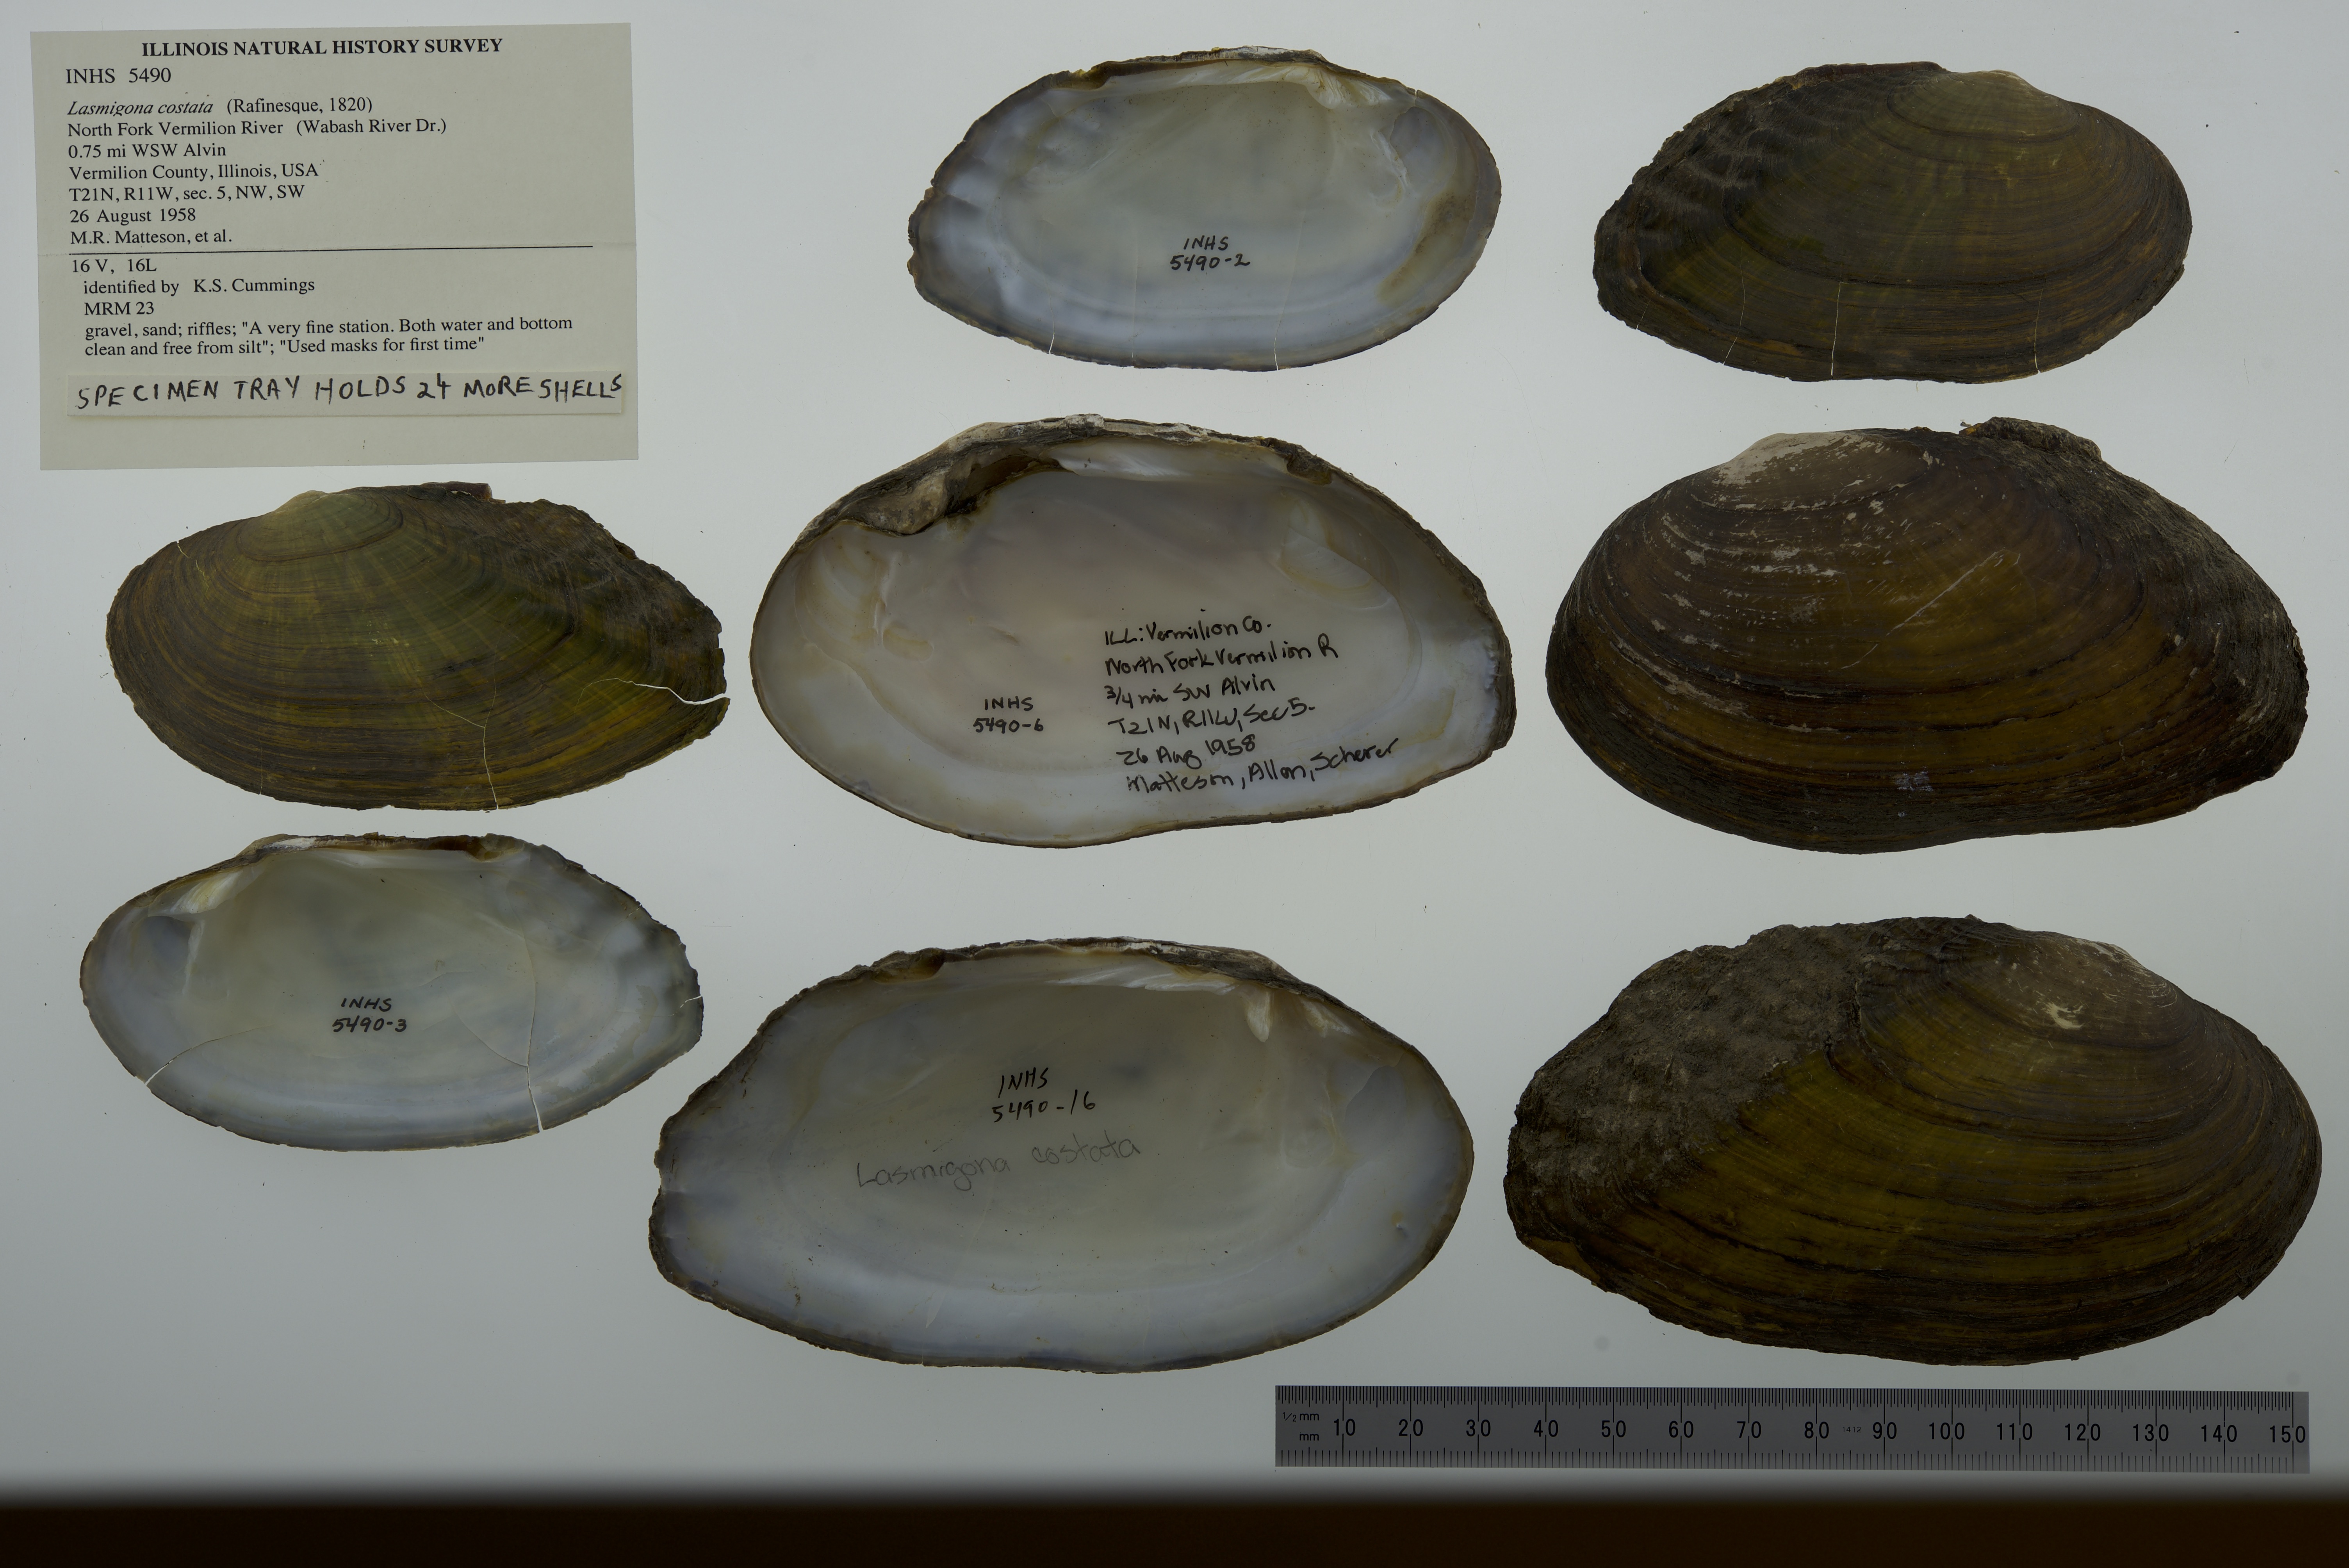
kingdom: Animalia
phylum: Mollusca
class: Bivalvia
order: Unionida
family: Unionidae
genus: Lasmigona
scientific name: Lasmigona costata
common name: Flutedshell
